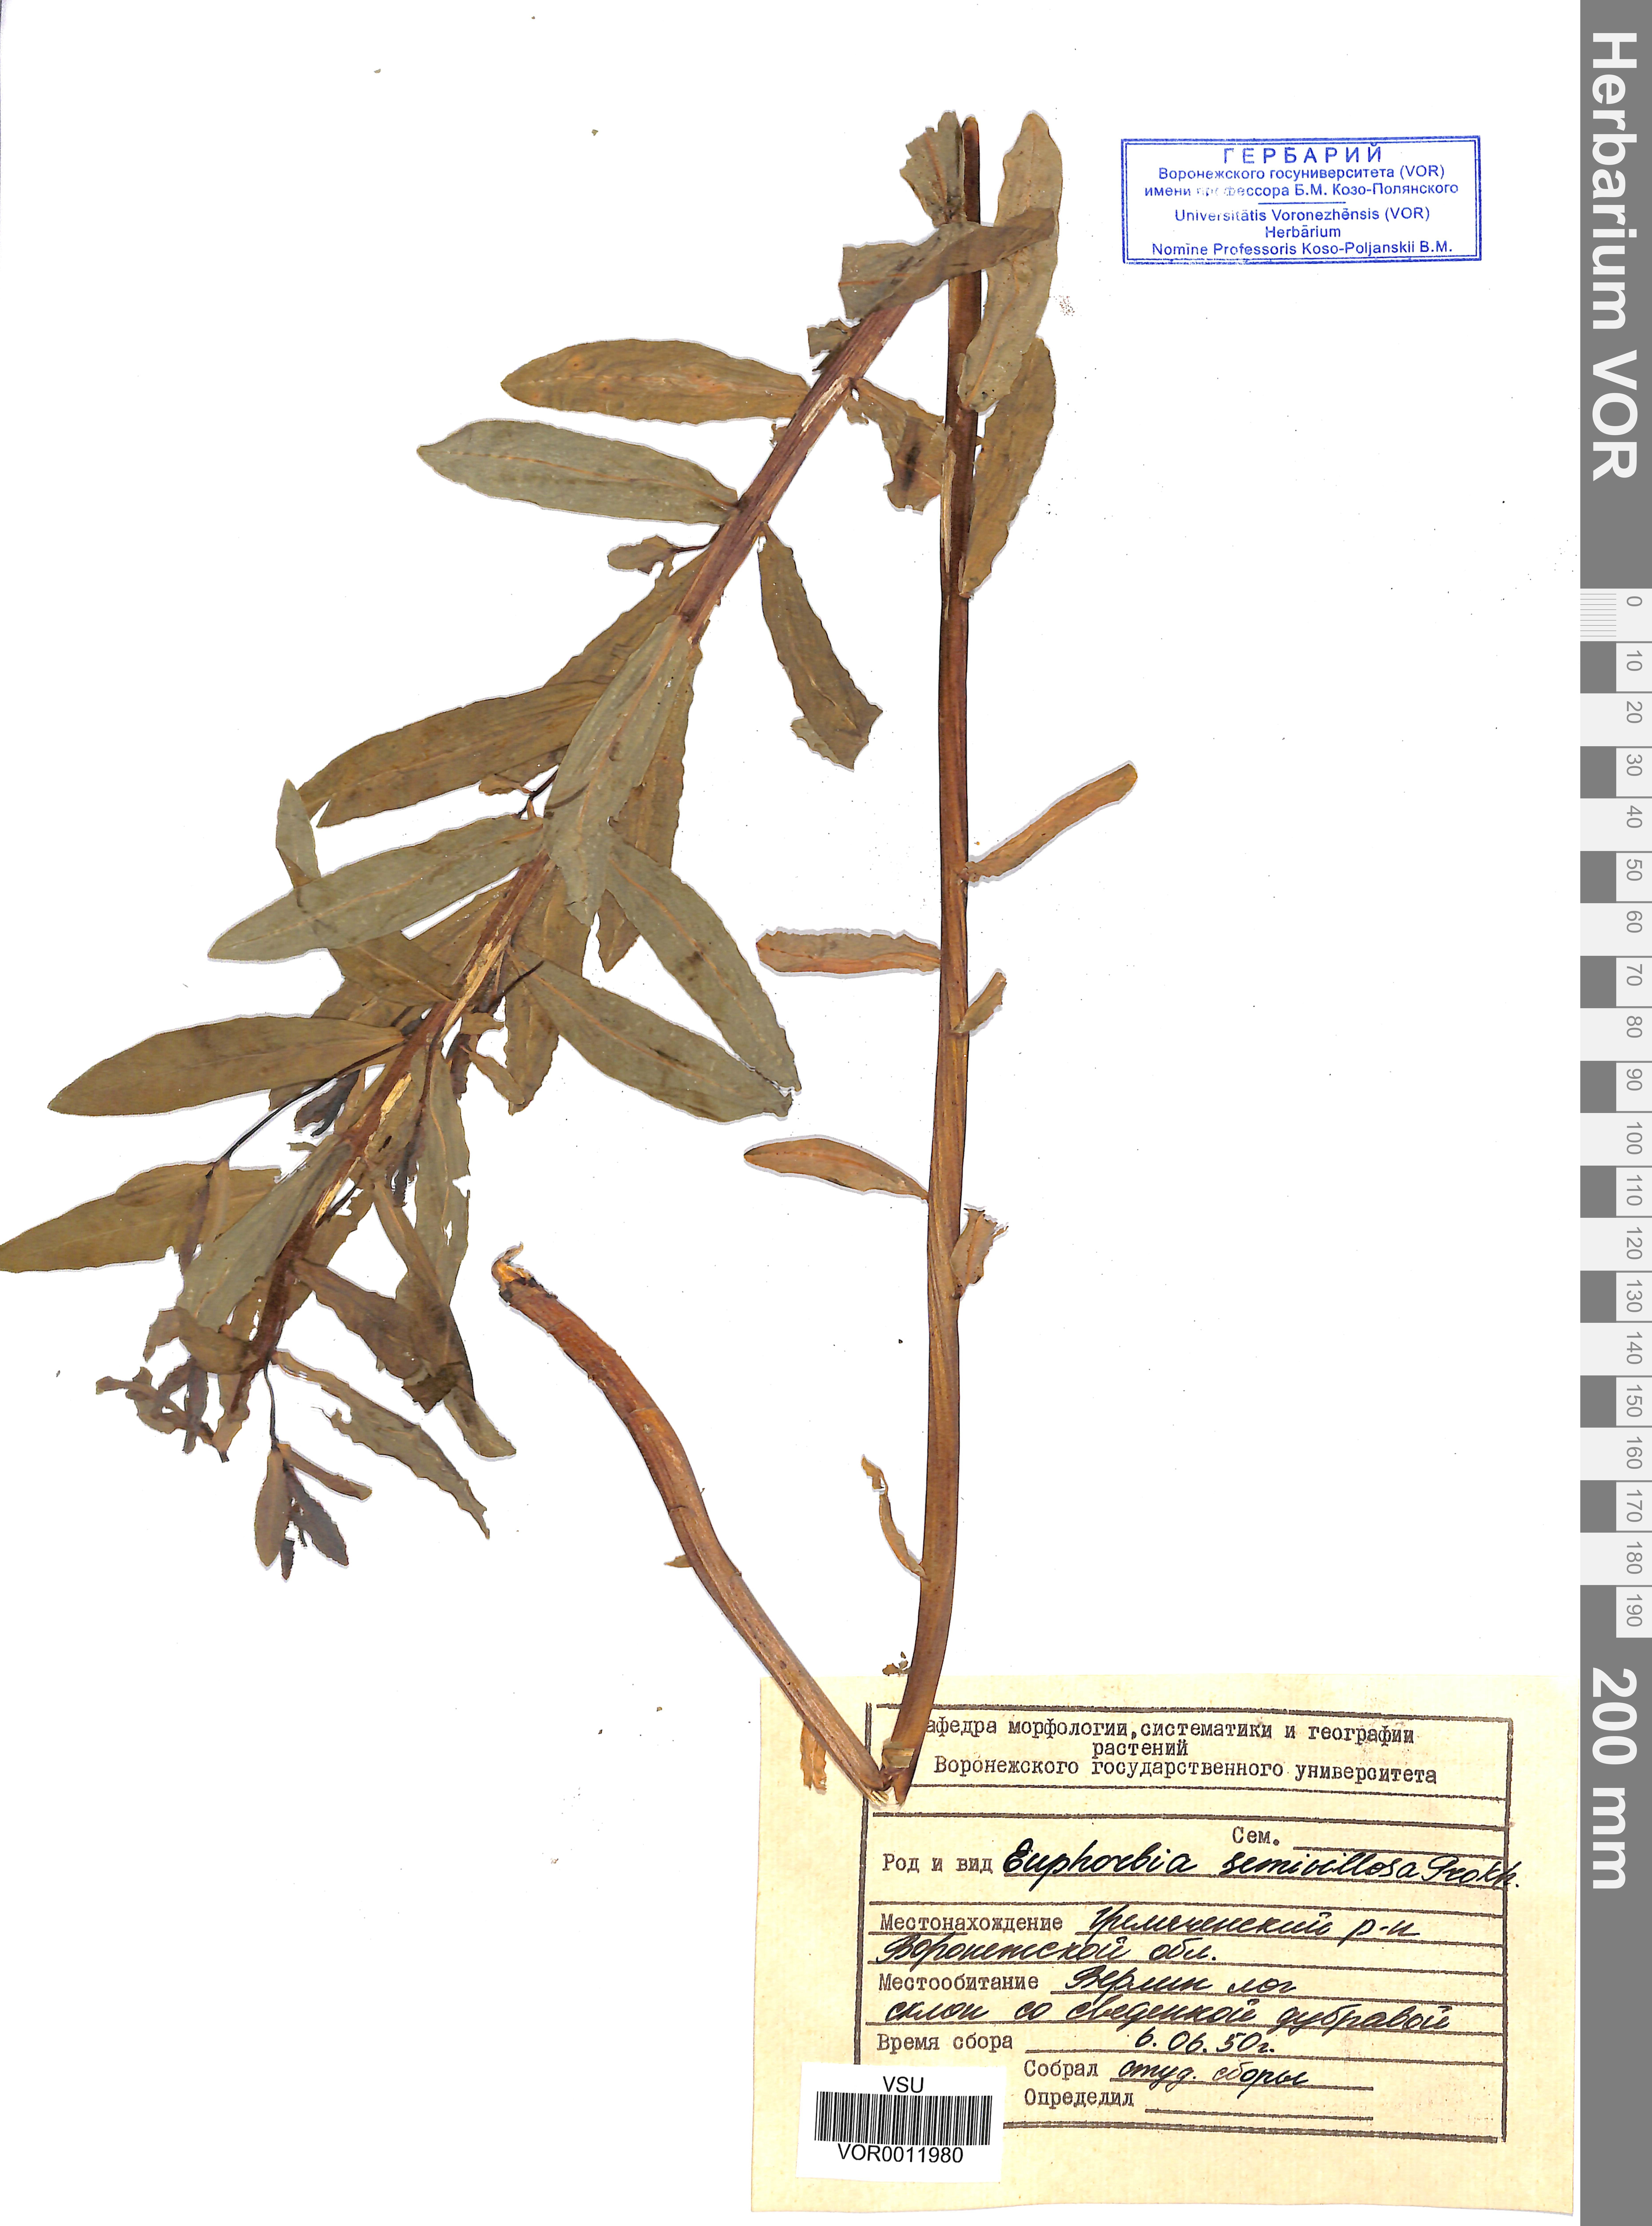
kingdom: Plantae
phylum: Tracheophyta
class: Magnoliopsida
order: Malpighiales
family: Euphorbiaceae
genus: Euphorbia
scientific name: Euphorbia semivillosa
